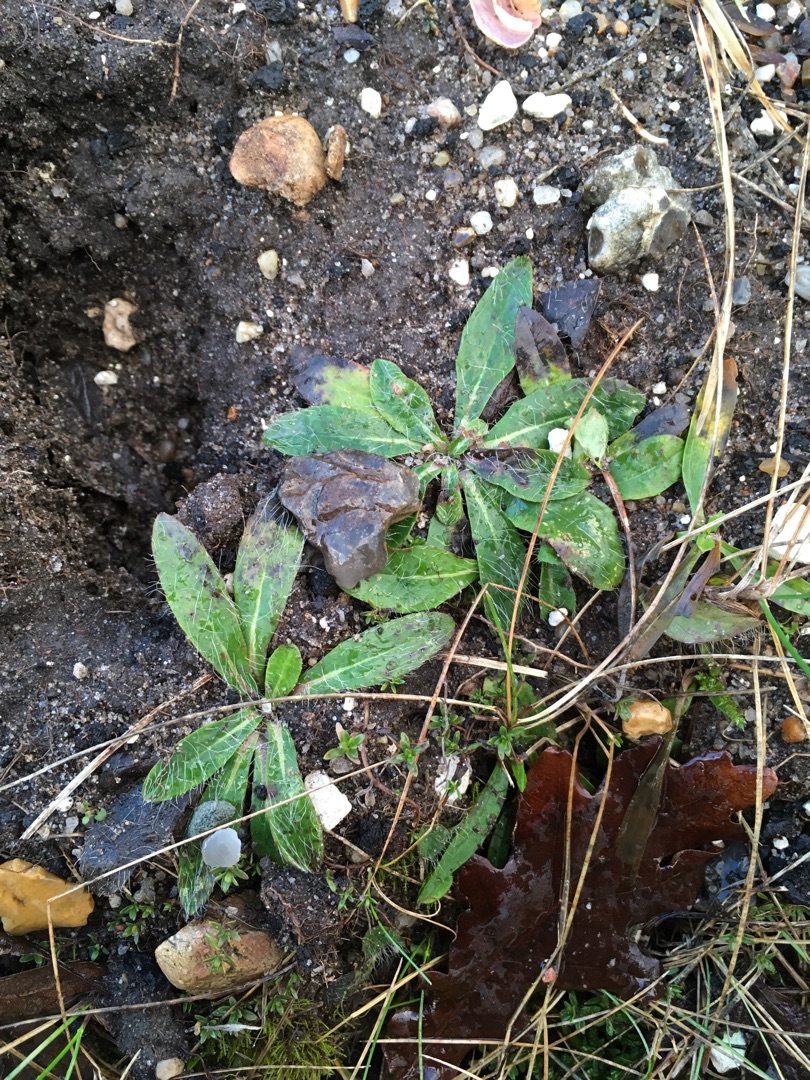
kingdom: Plantae
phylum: Tracheophyta
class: Magnoliopsida
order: Asterales
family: Asteraceae
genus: Pilosella
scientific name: Pilosella officinarum
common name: Håret høgeurt
